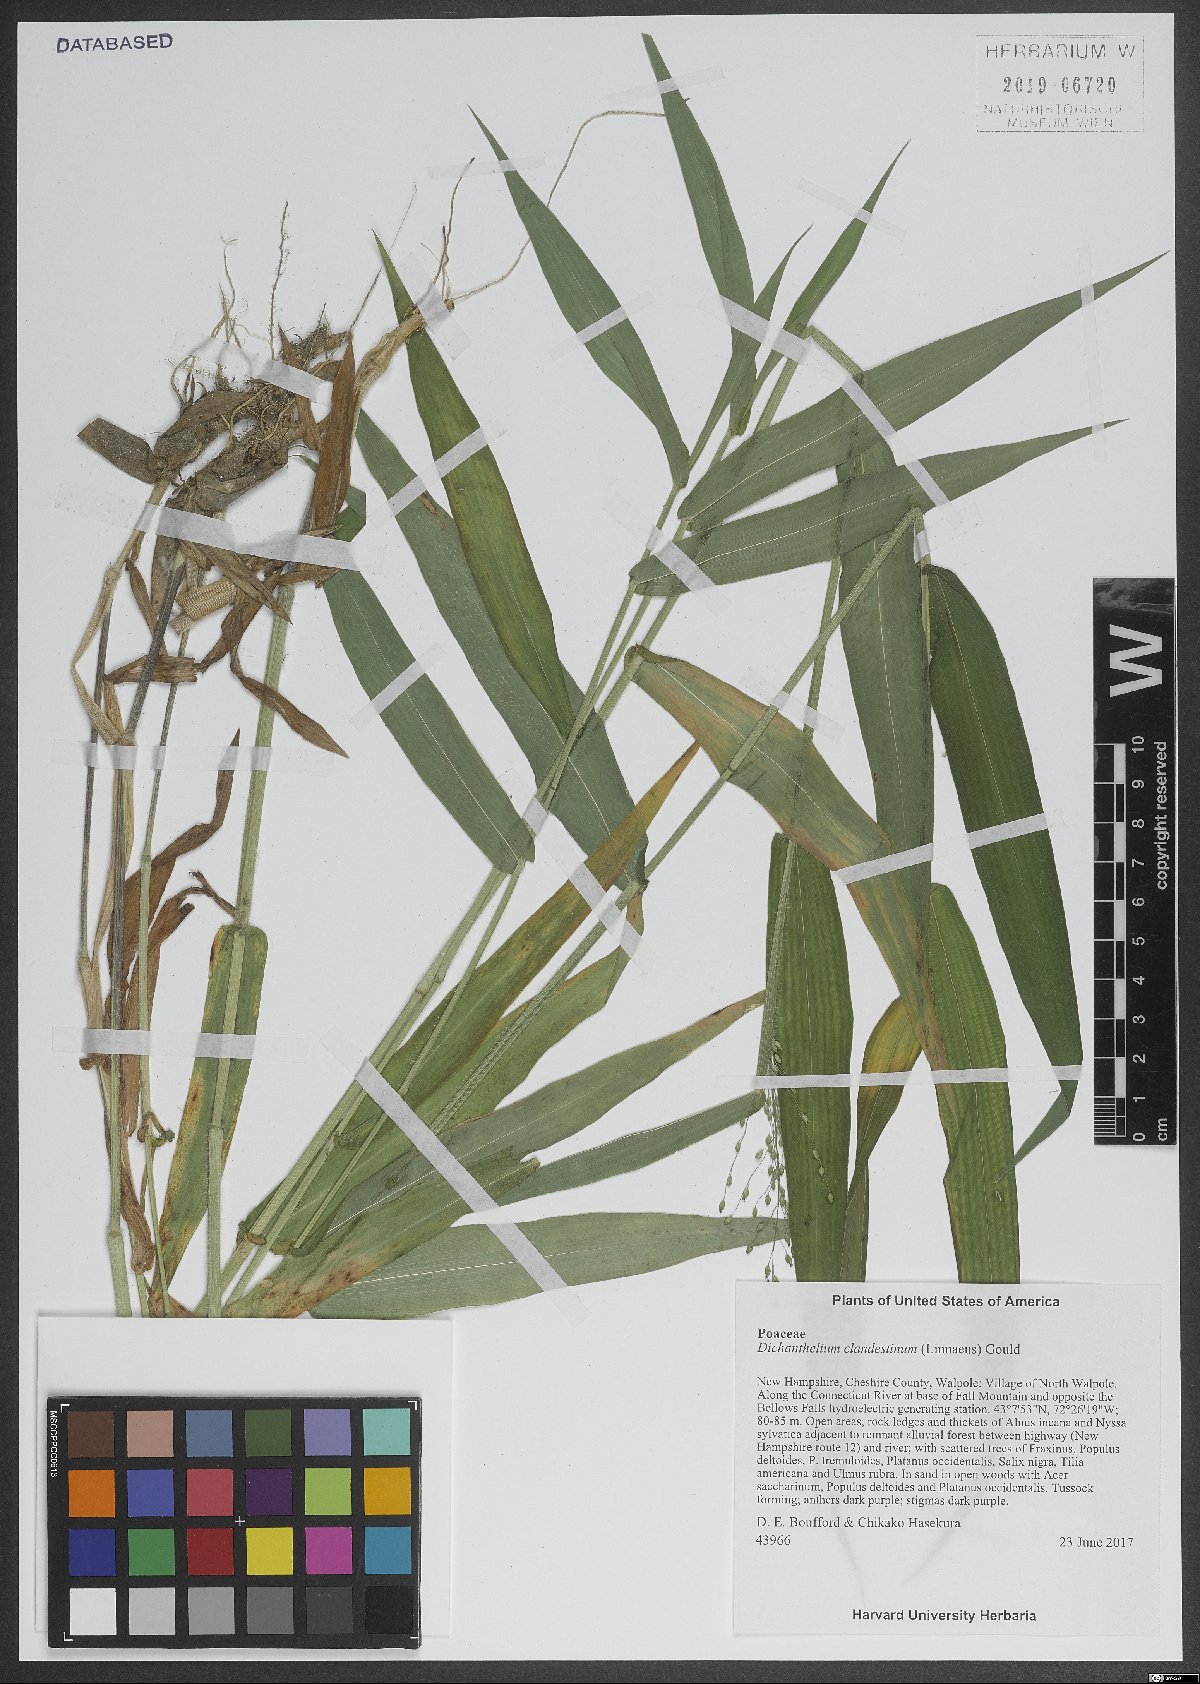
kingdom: Plantae
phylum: Tracheophyta
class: Liliopsida
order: Poales
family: Poaceae
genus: Dichanthelium
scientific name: Dichanthelium clandestinum
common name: Deer-tongue grass
